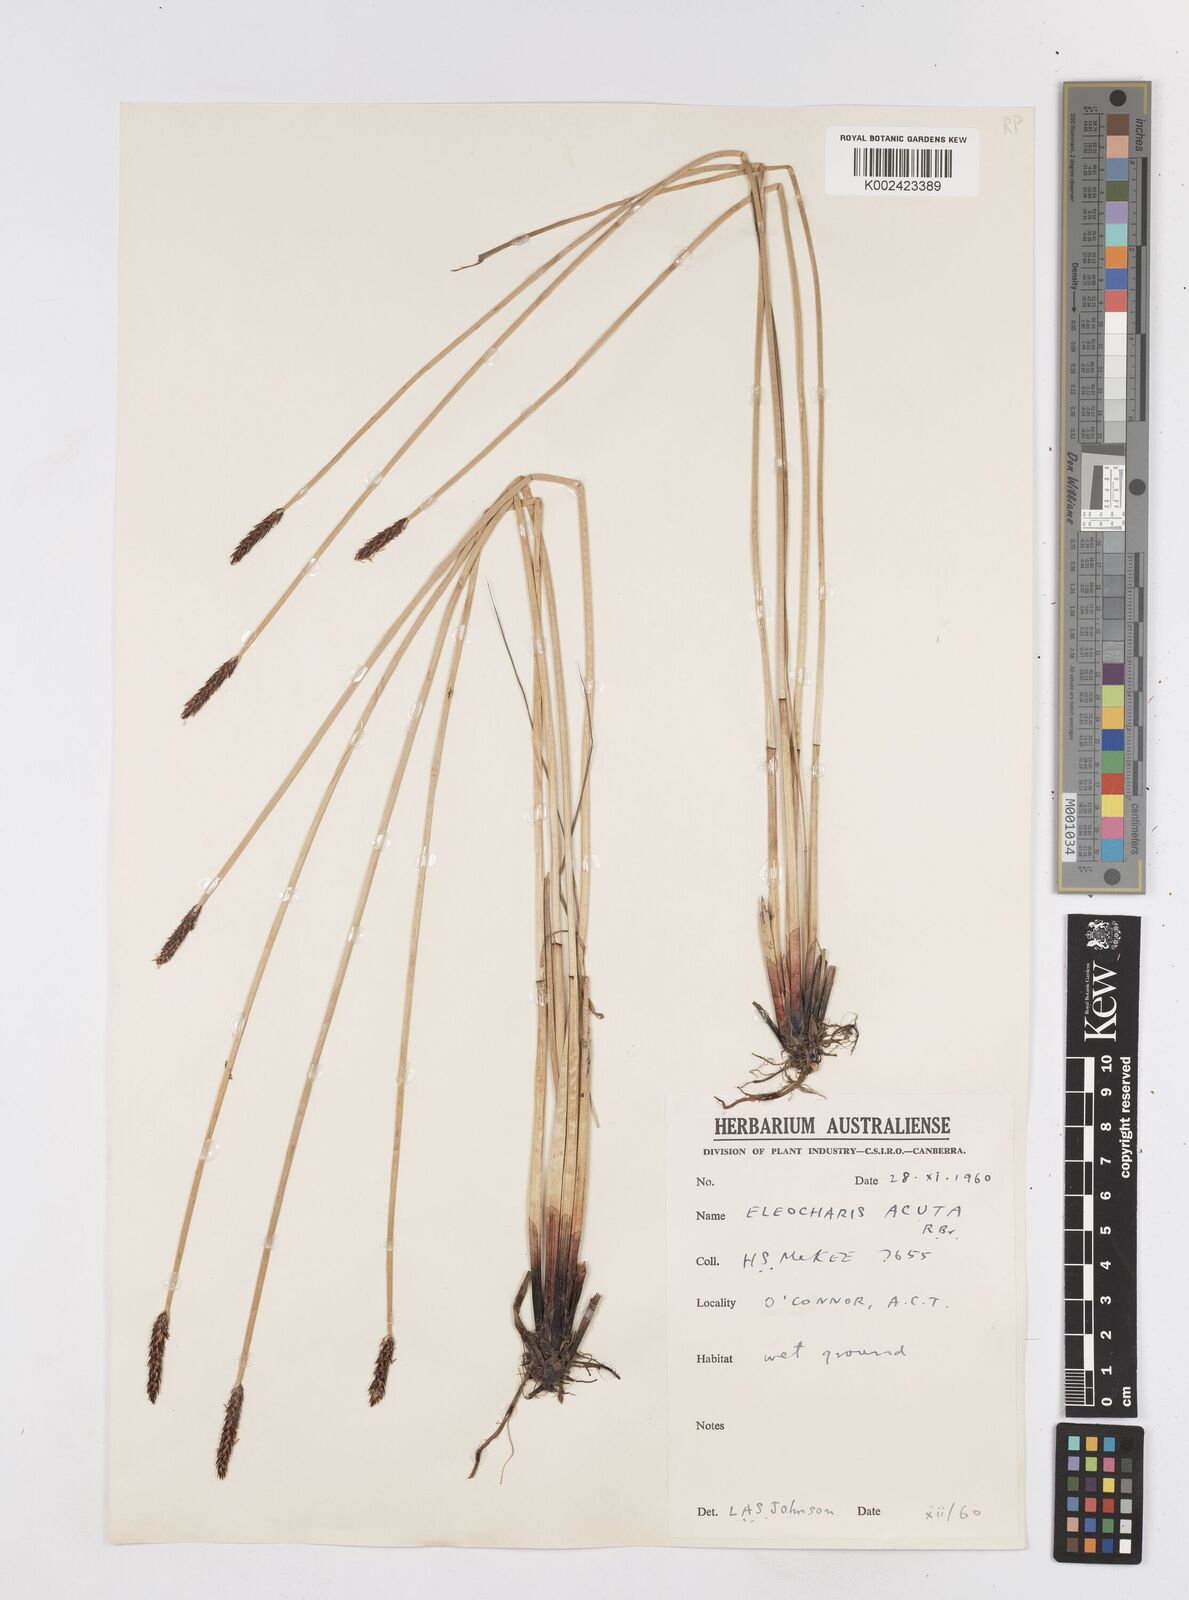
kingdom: Plantae
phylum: Tracheophyta
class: Liliopsida
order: Poales
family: Cyperaceae
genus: Eleocharis
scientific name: Eleocharis acuta
